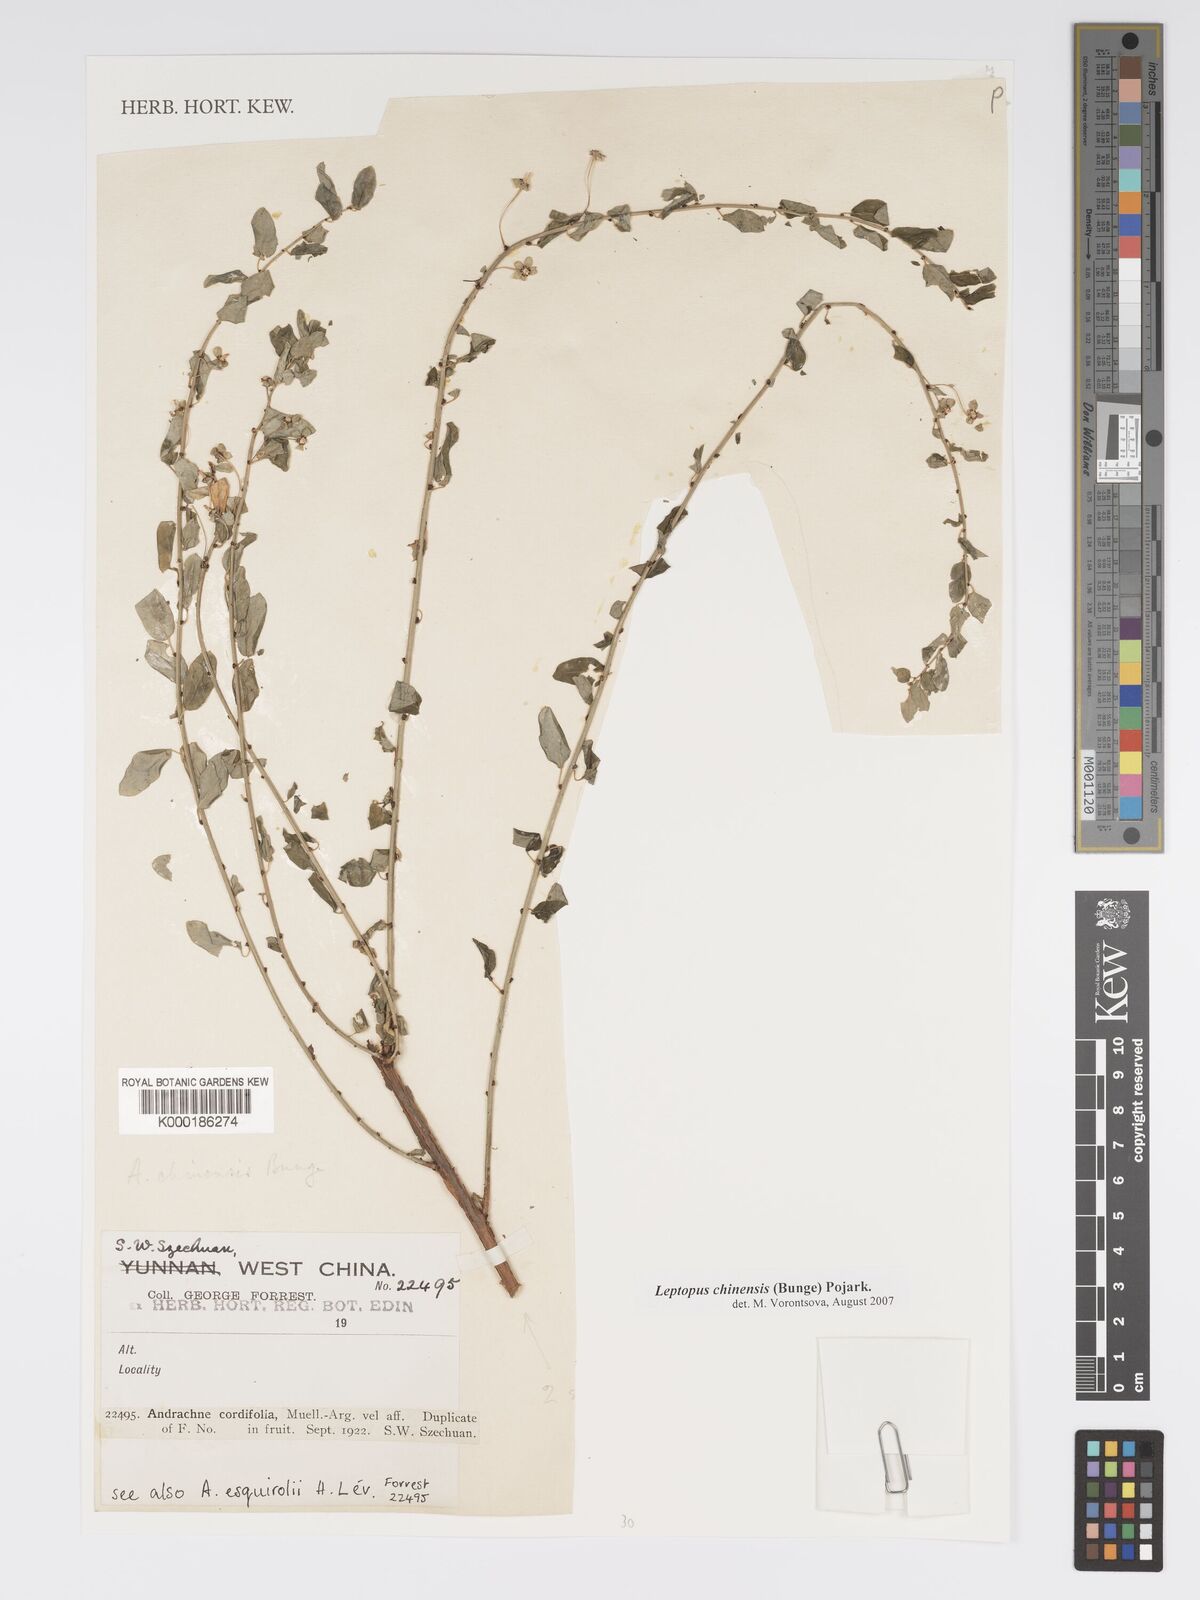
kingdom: Plantae
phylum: Tracheophyta
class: Magnoliopsida
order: Malpighiales
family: Phyllanthaceae
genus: Leptopus
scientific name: Leptopus chinensis
